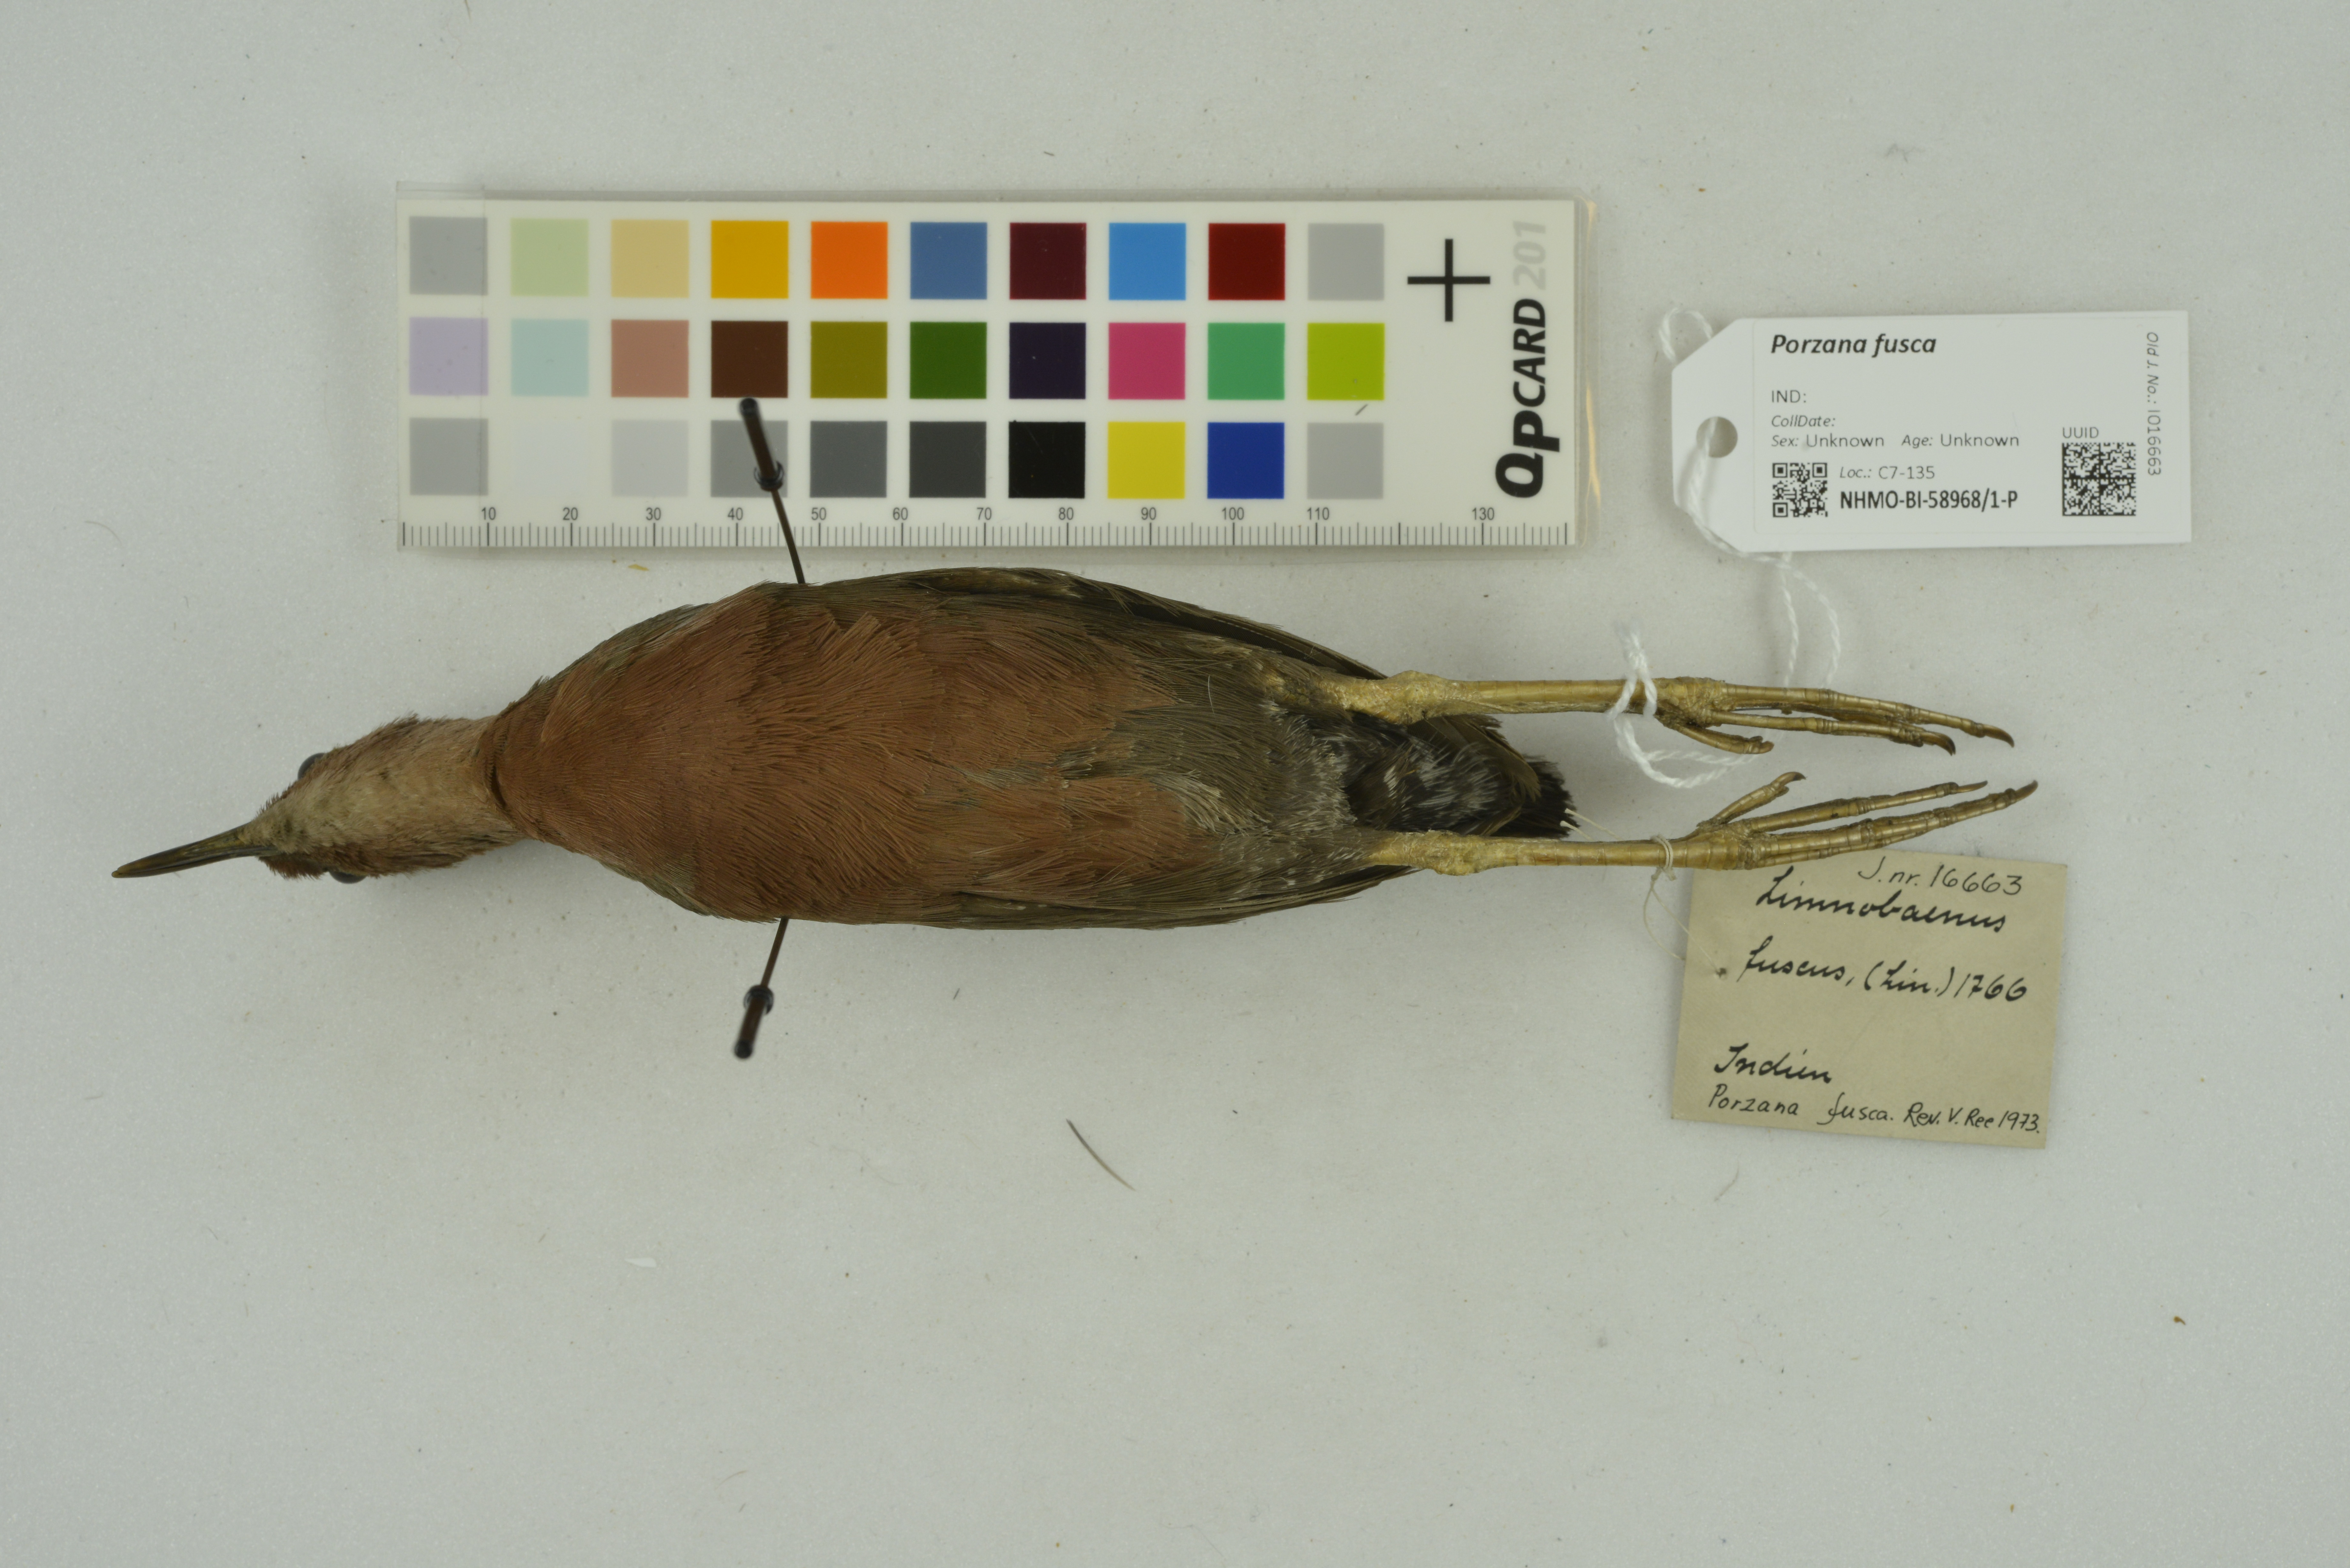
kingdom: Animalia
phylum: Chordata
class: Aves
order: Gruiformes
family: Rallidae
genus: Porzana
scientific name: Porzana fusca
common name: Ruddy-breasted crake
